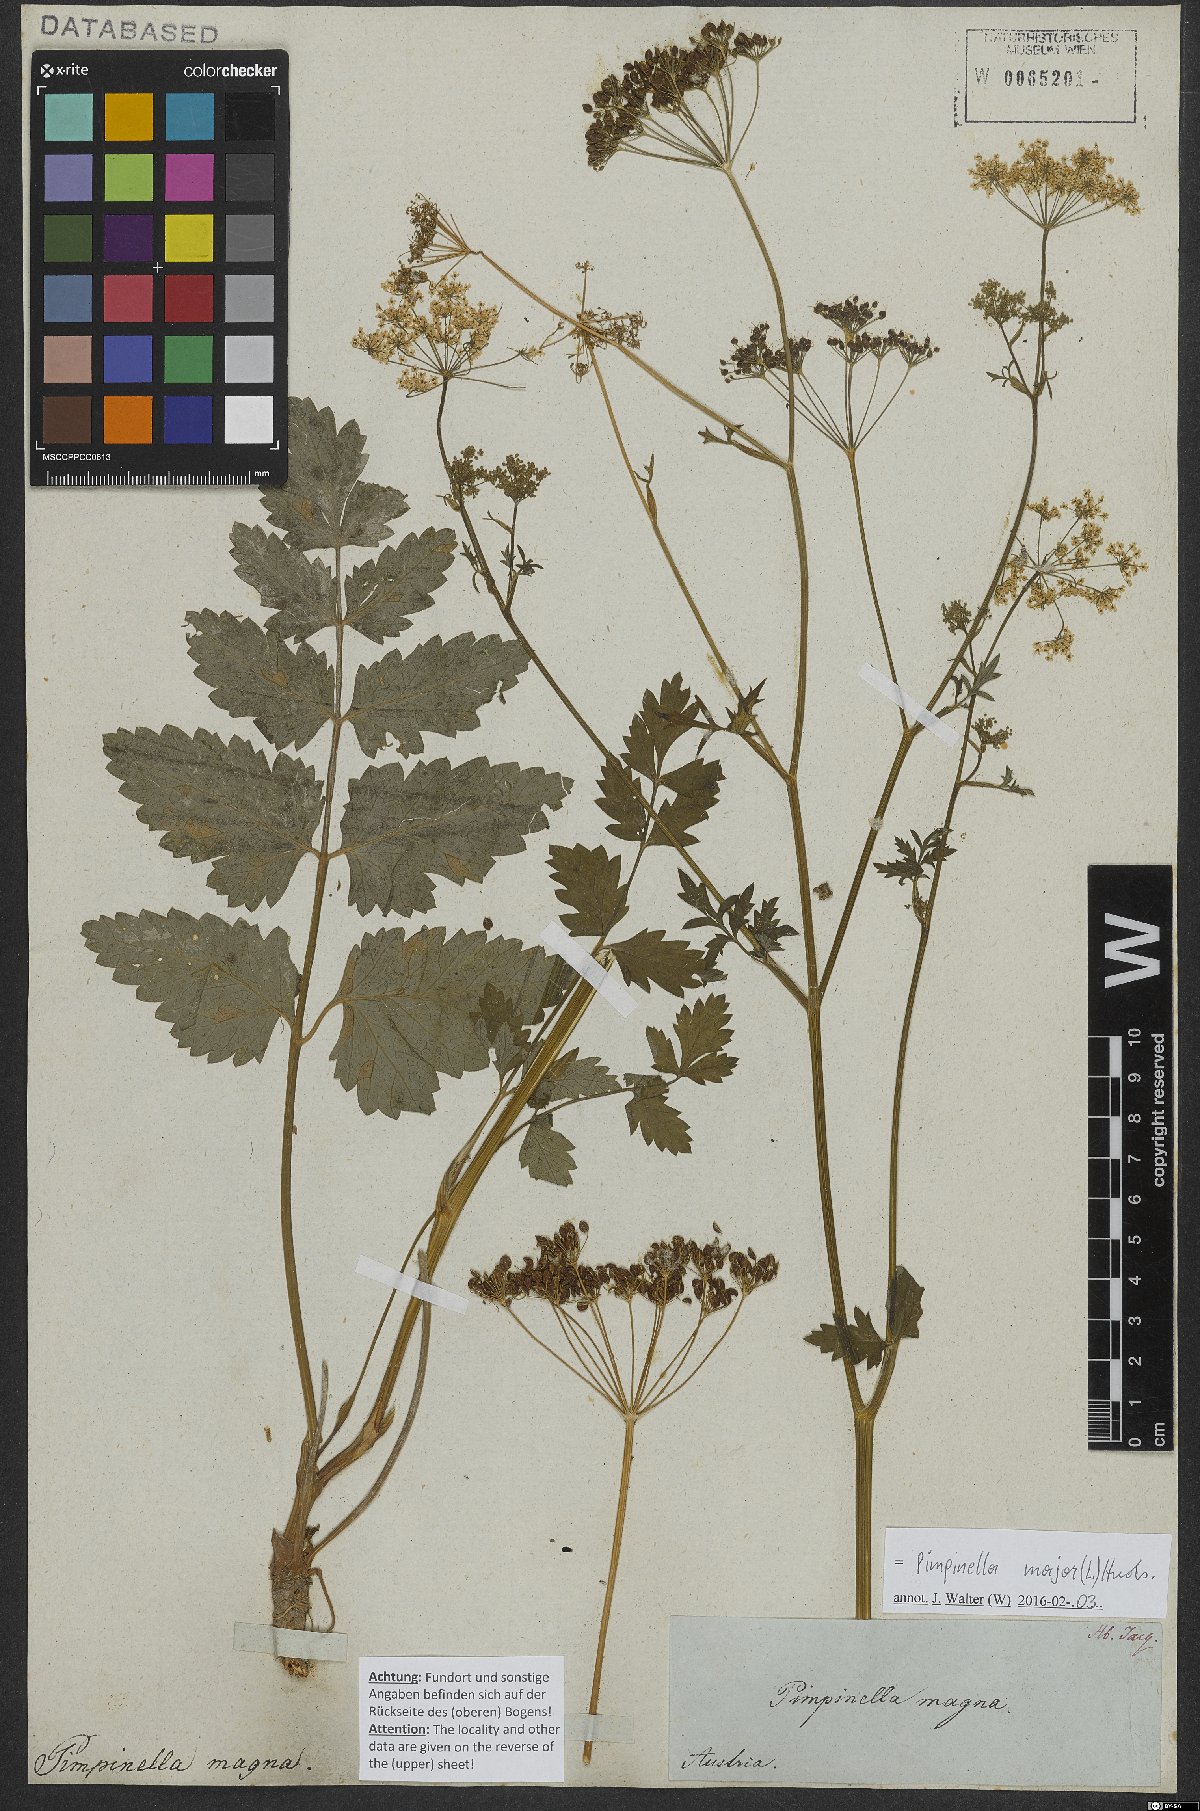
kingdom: Plantae
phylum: Tracheophyta
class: Magnoliopsida
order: Apiales
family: Apiaceae
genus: Pimpinella
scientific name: Pimpinella major
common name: Greater burnet-saxifrage
